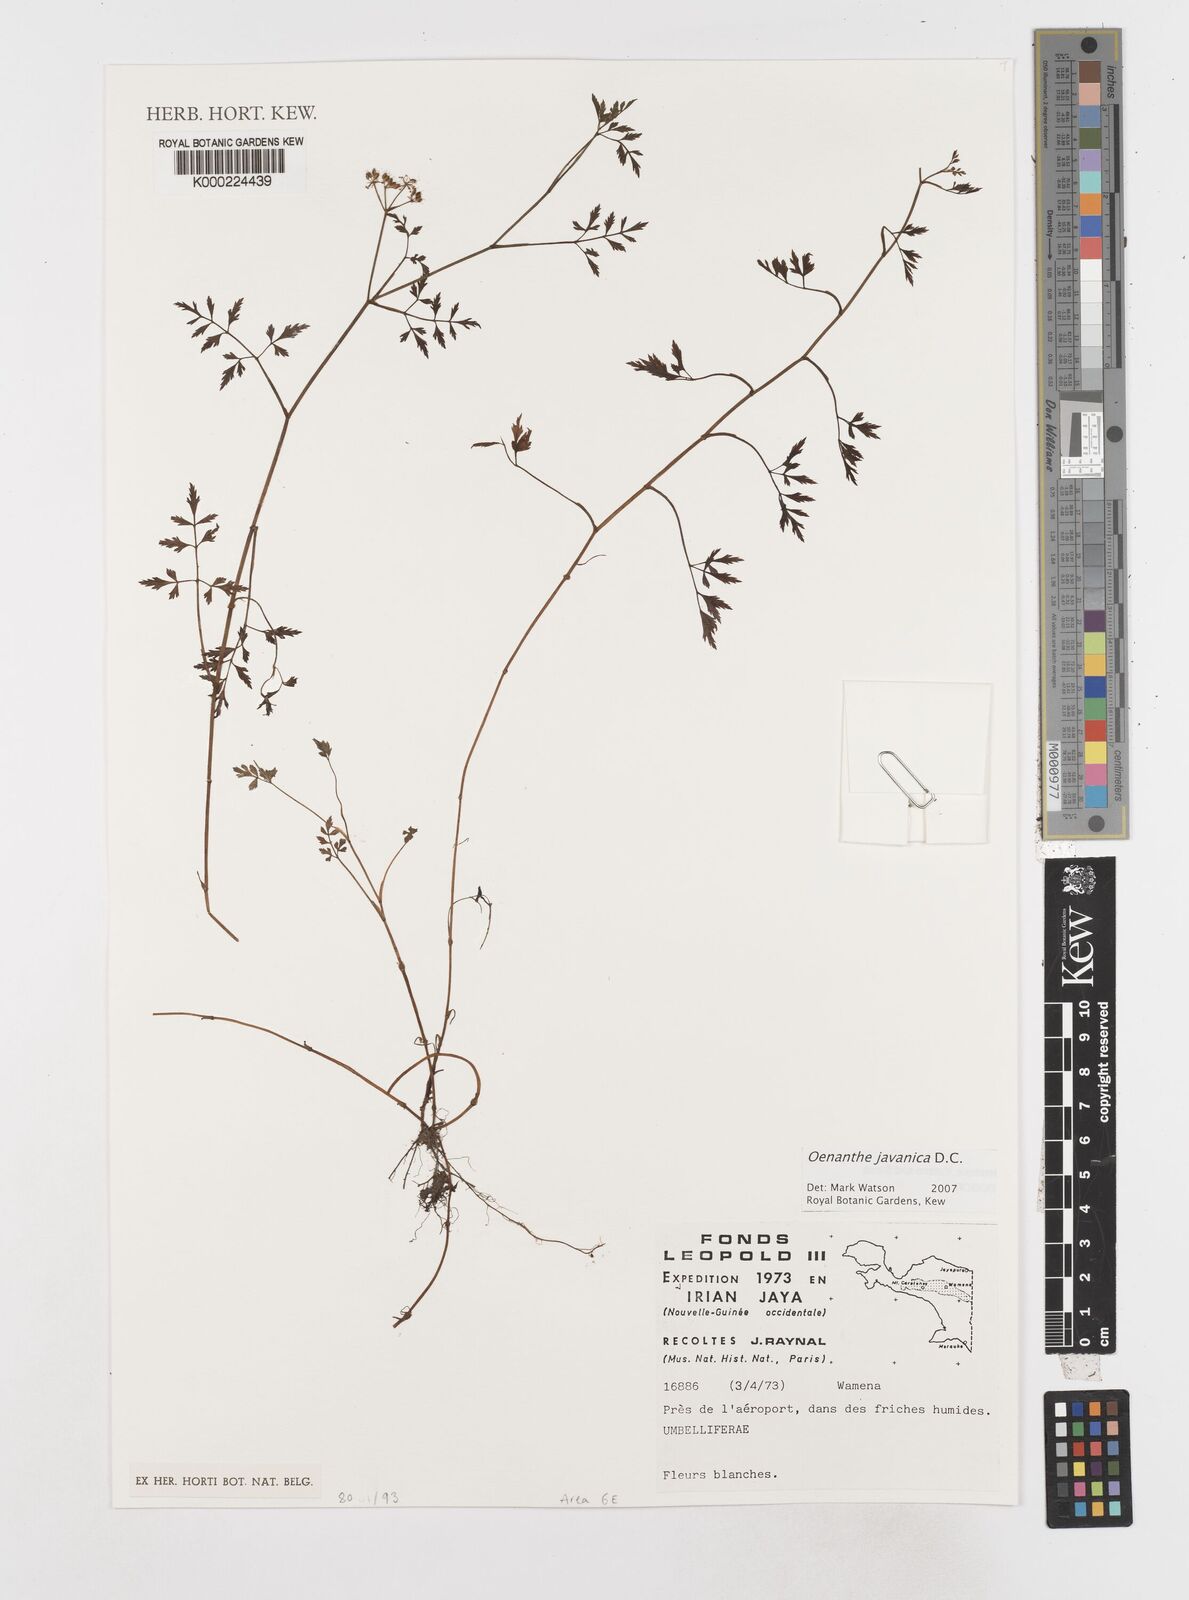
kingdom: Plantae
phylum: Tracheophyta
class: Magnoliopsida
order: Apiales
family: Apiaceae
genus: Oenanthe
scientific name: Oenanthe javanica
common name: Java water-dropwort
